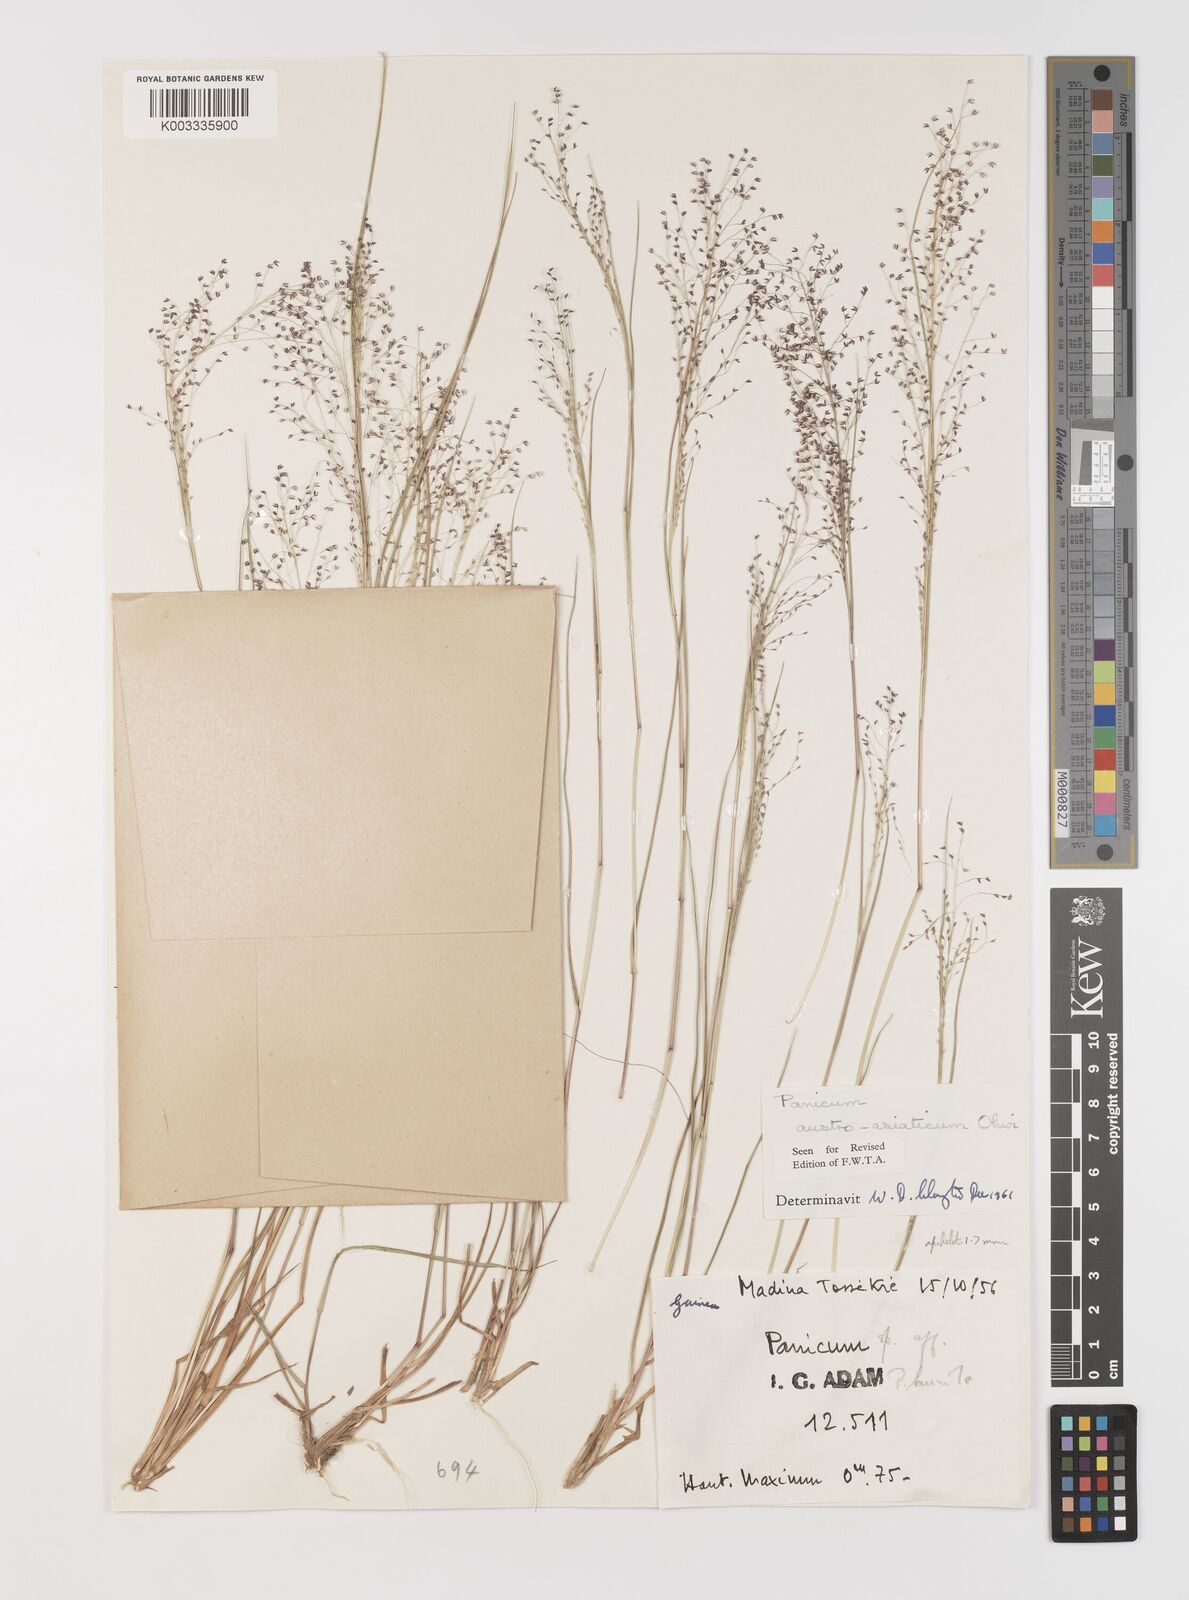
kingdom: Plantae
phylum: Tracheophyta
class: Liliopsida
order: Poales
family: Poaceae
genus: Panicum
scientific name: Panicum humile
